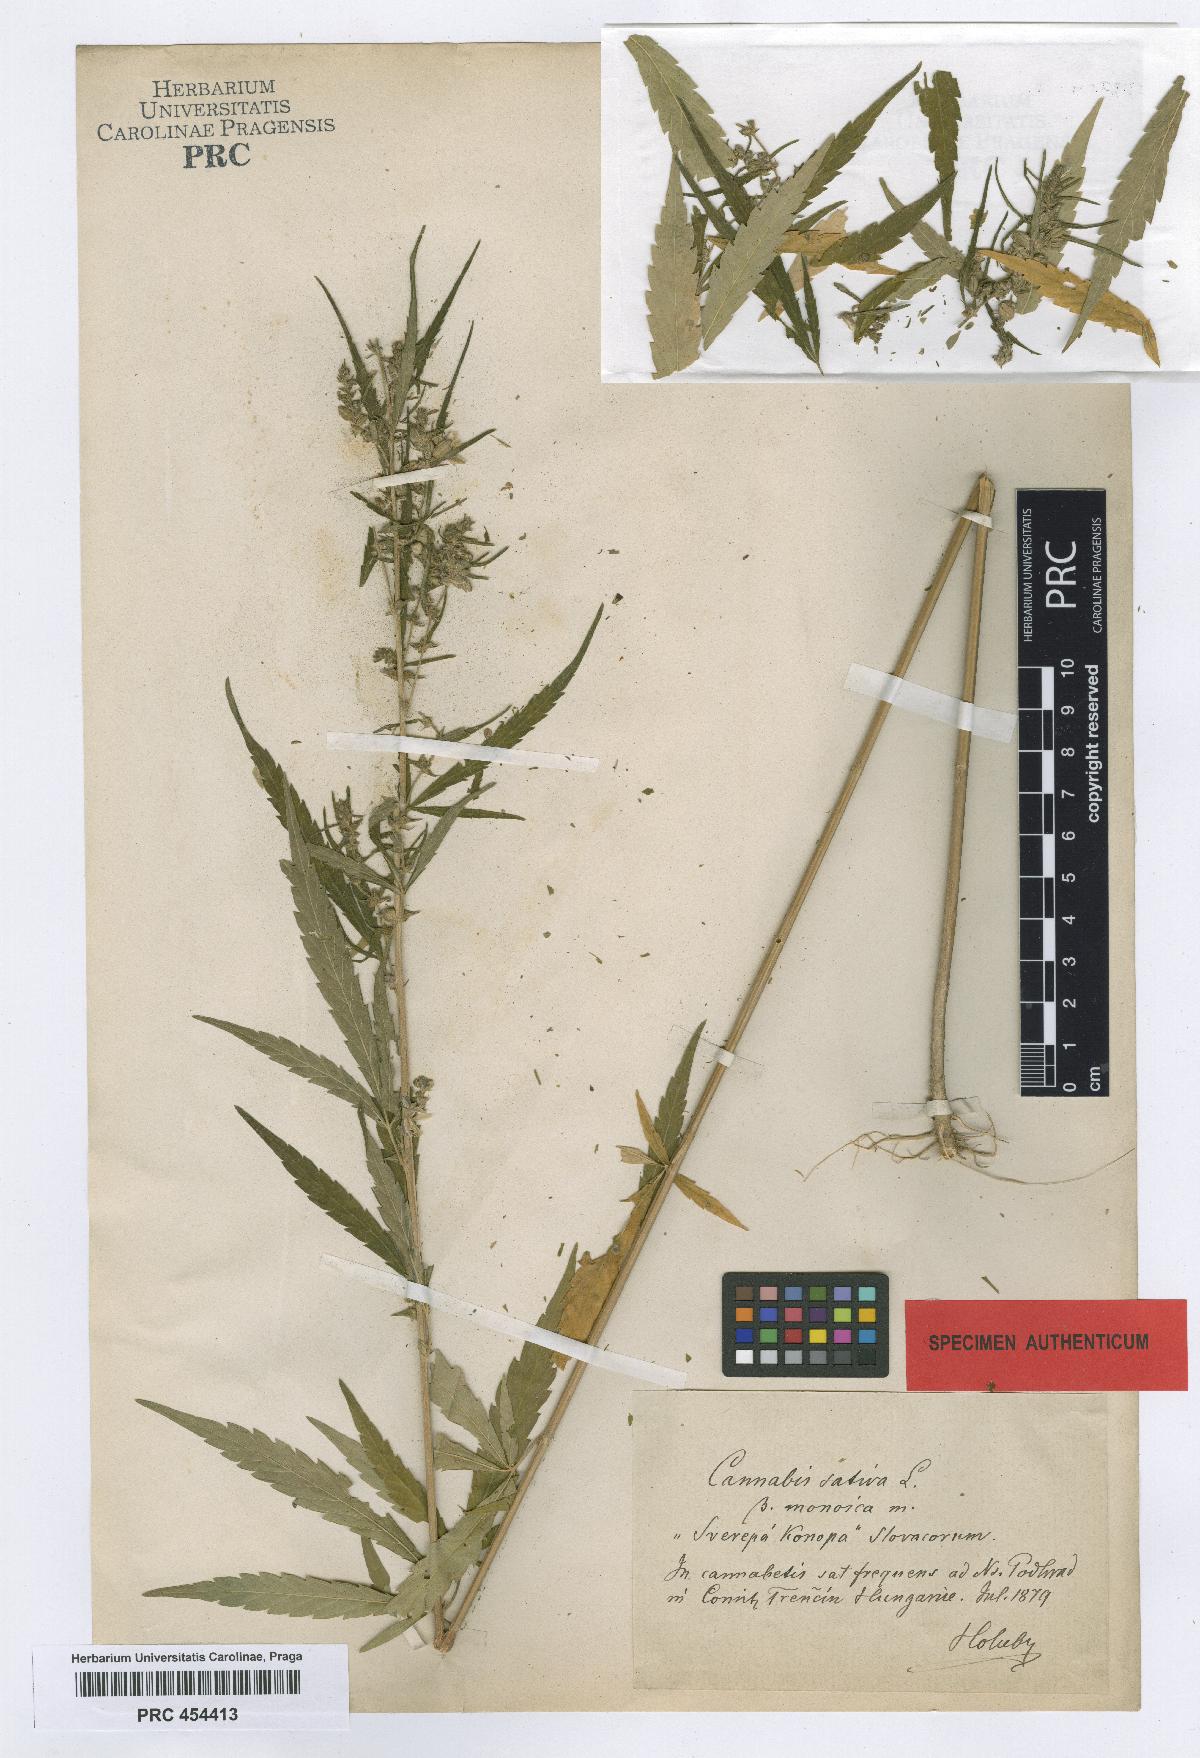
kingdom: Plantae
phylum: Tracheophyta
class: Magnoliopsida
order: Rosales
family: Cannabaceae
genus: Cannabis
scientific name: Cannabis sativa
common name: Hemp
